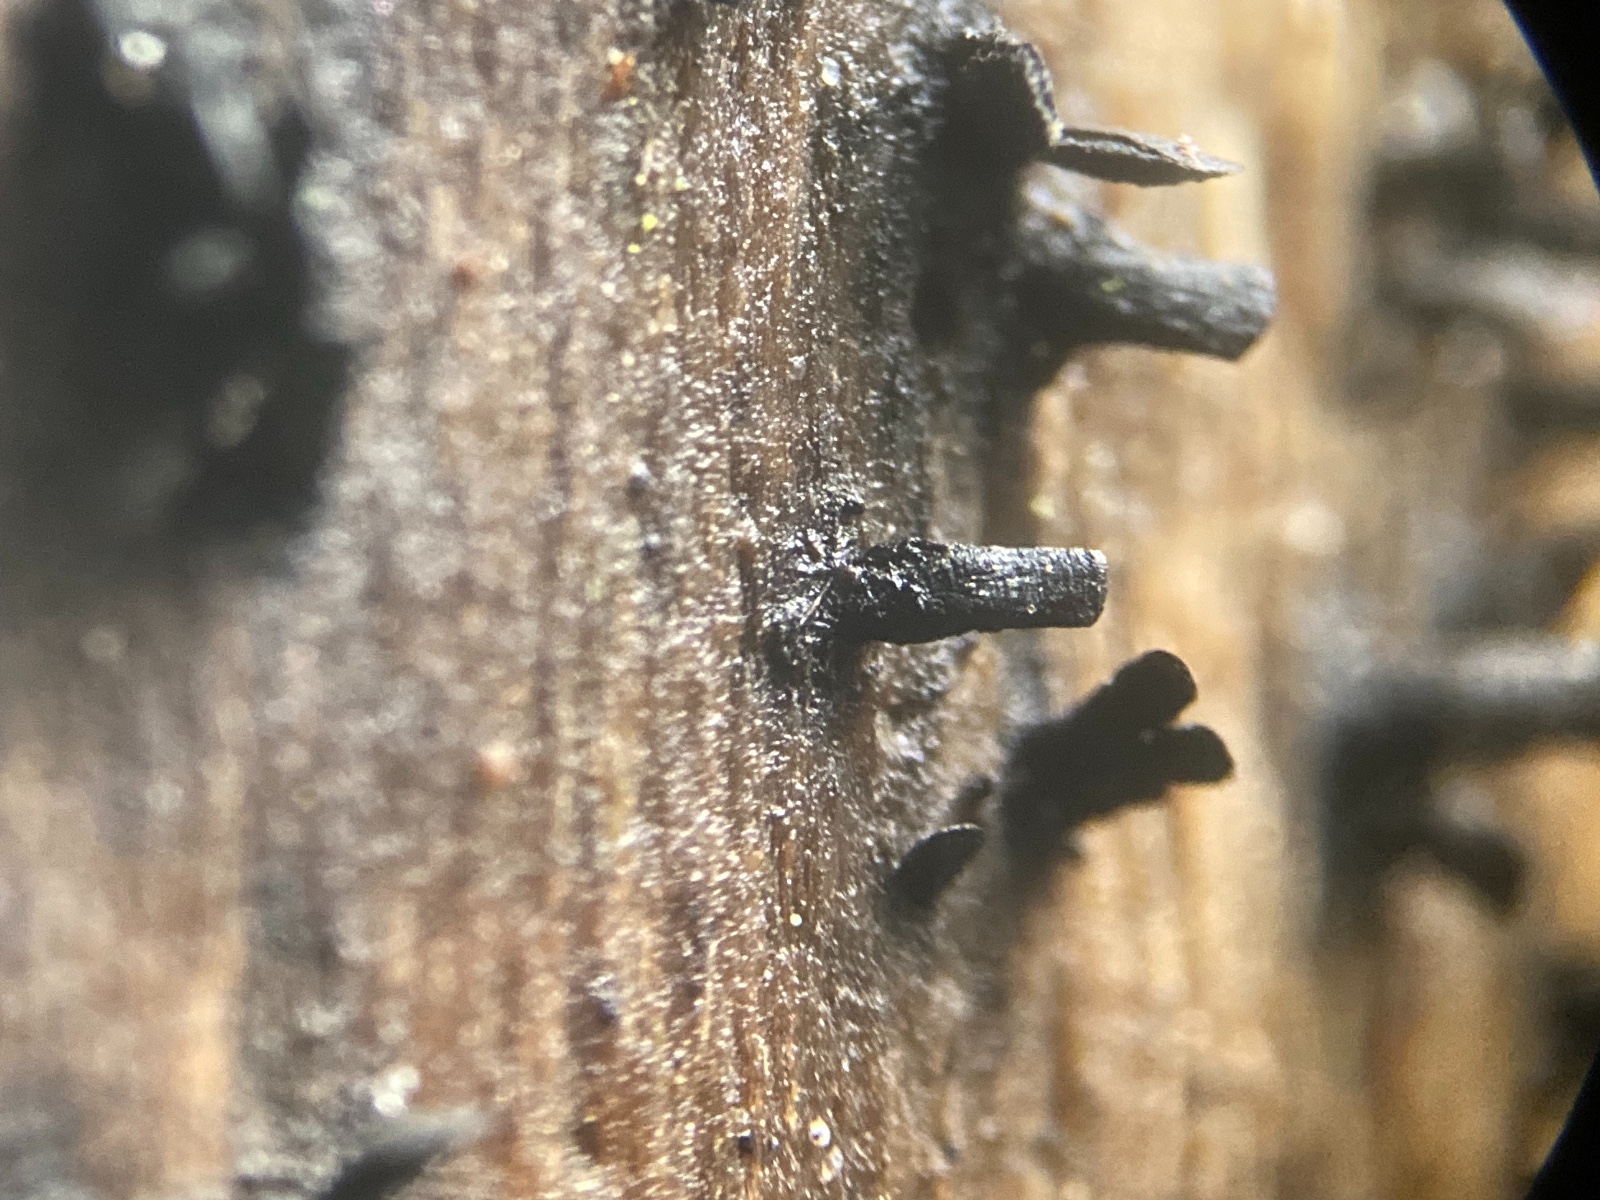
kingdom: Fungi
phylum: Ascomycota
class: Eurotiomycetes
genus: Glyphium
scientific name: Glyphium elatum
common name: kuløkse
